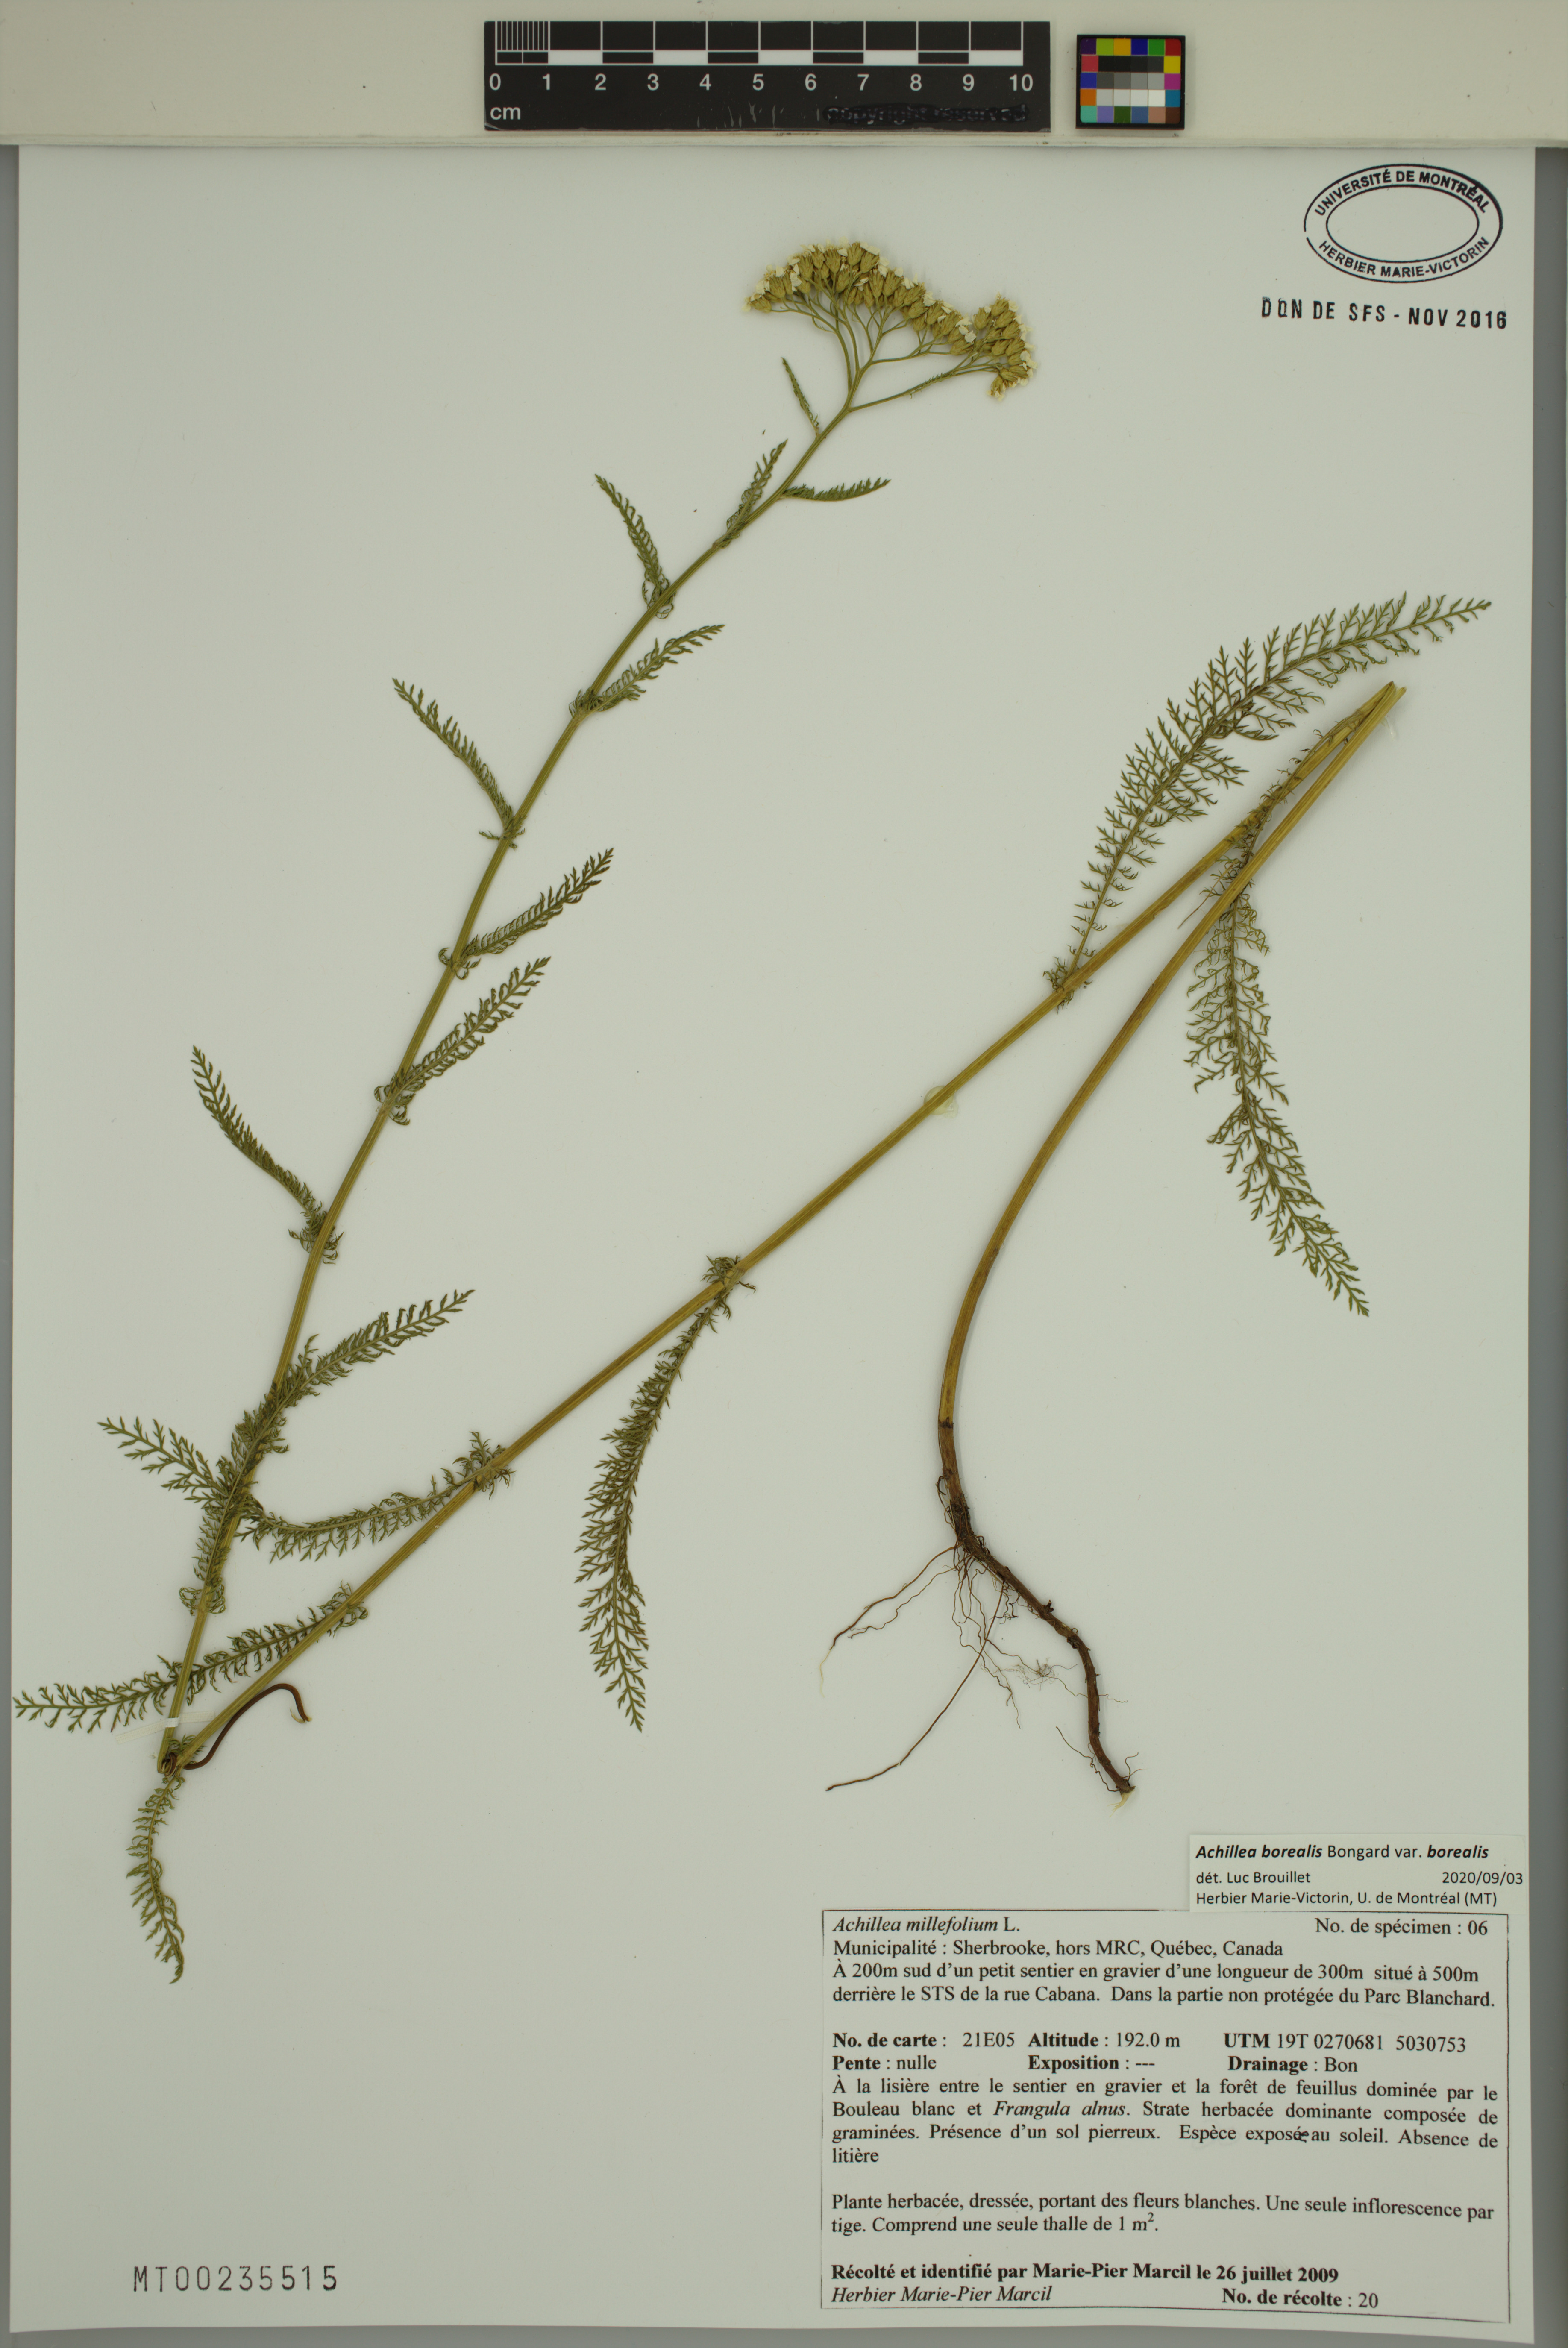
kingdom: Plantae
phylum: Tracheophyta
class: Magnoliopsida
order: Asterales
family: Asteraceae
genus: Achillea
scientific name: Achillea millefolium
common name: Yarrow
